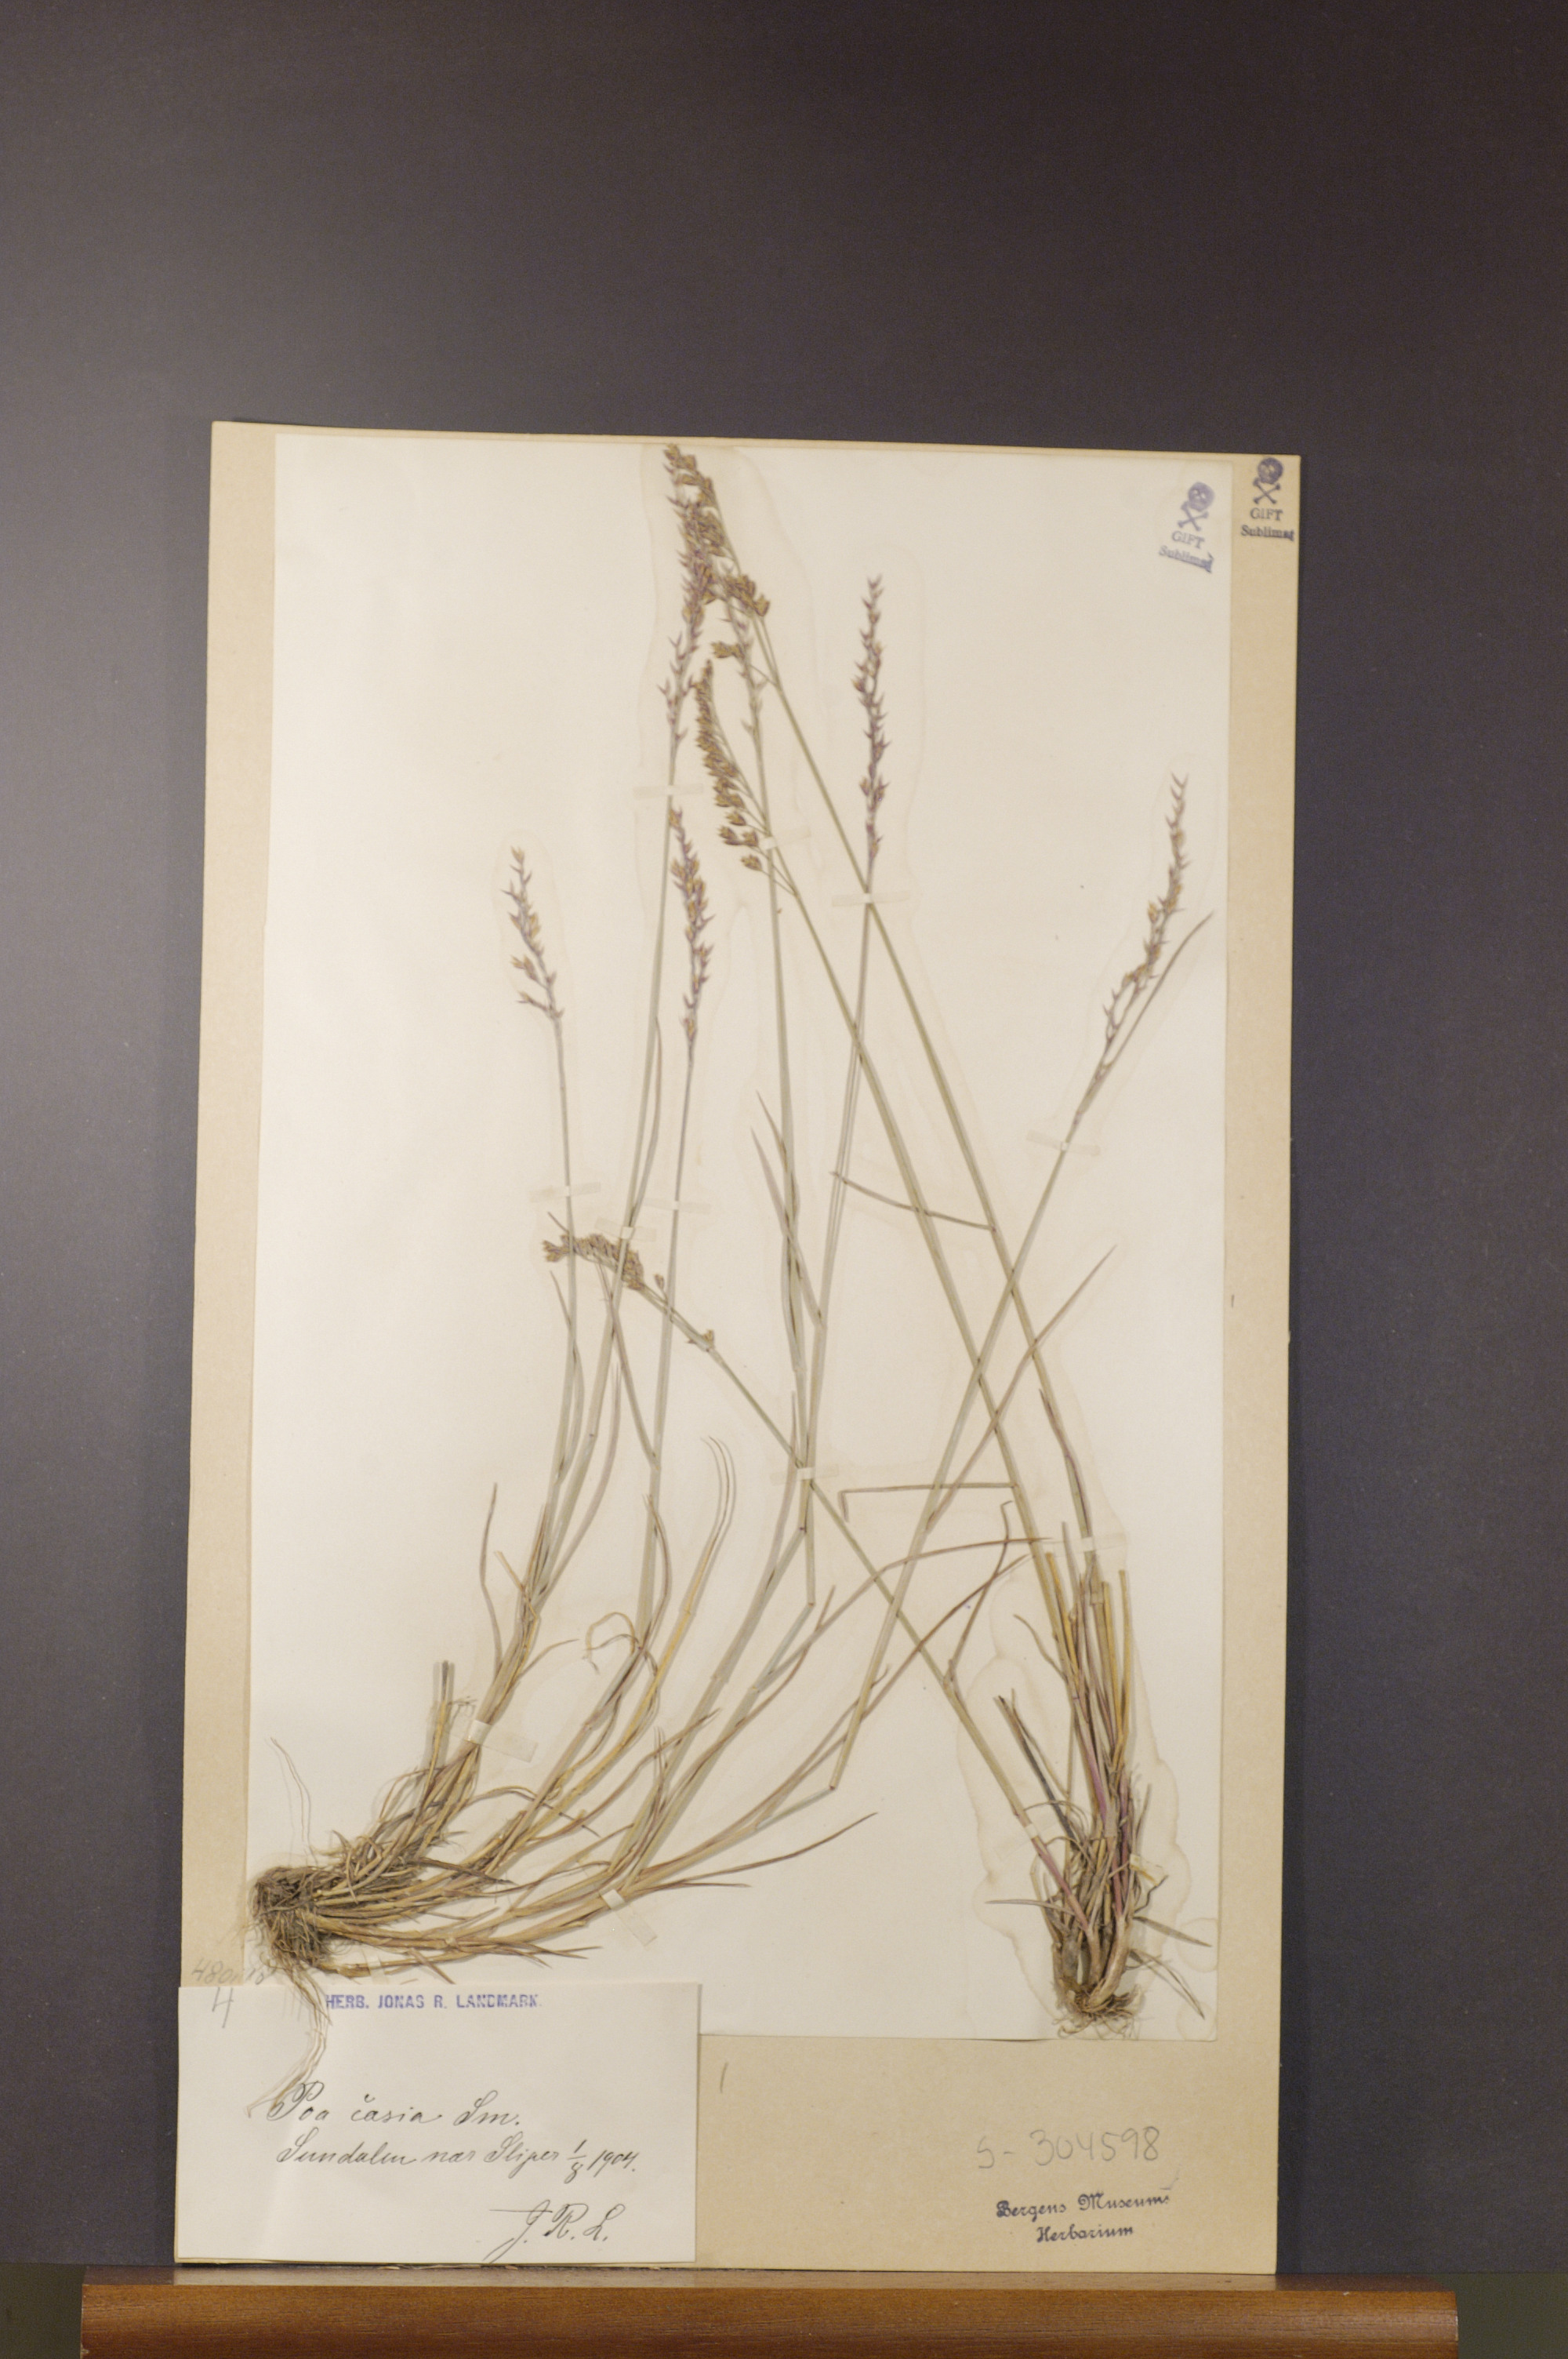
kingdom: Plantae
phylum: Tracheophyta
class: Liliopsida
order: Poales
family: Poaceae
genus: Poa
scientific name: Poa glauca
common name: Glaucous bluegrass
